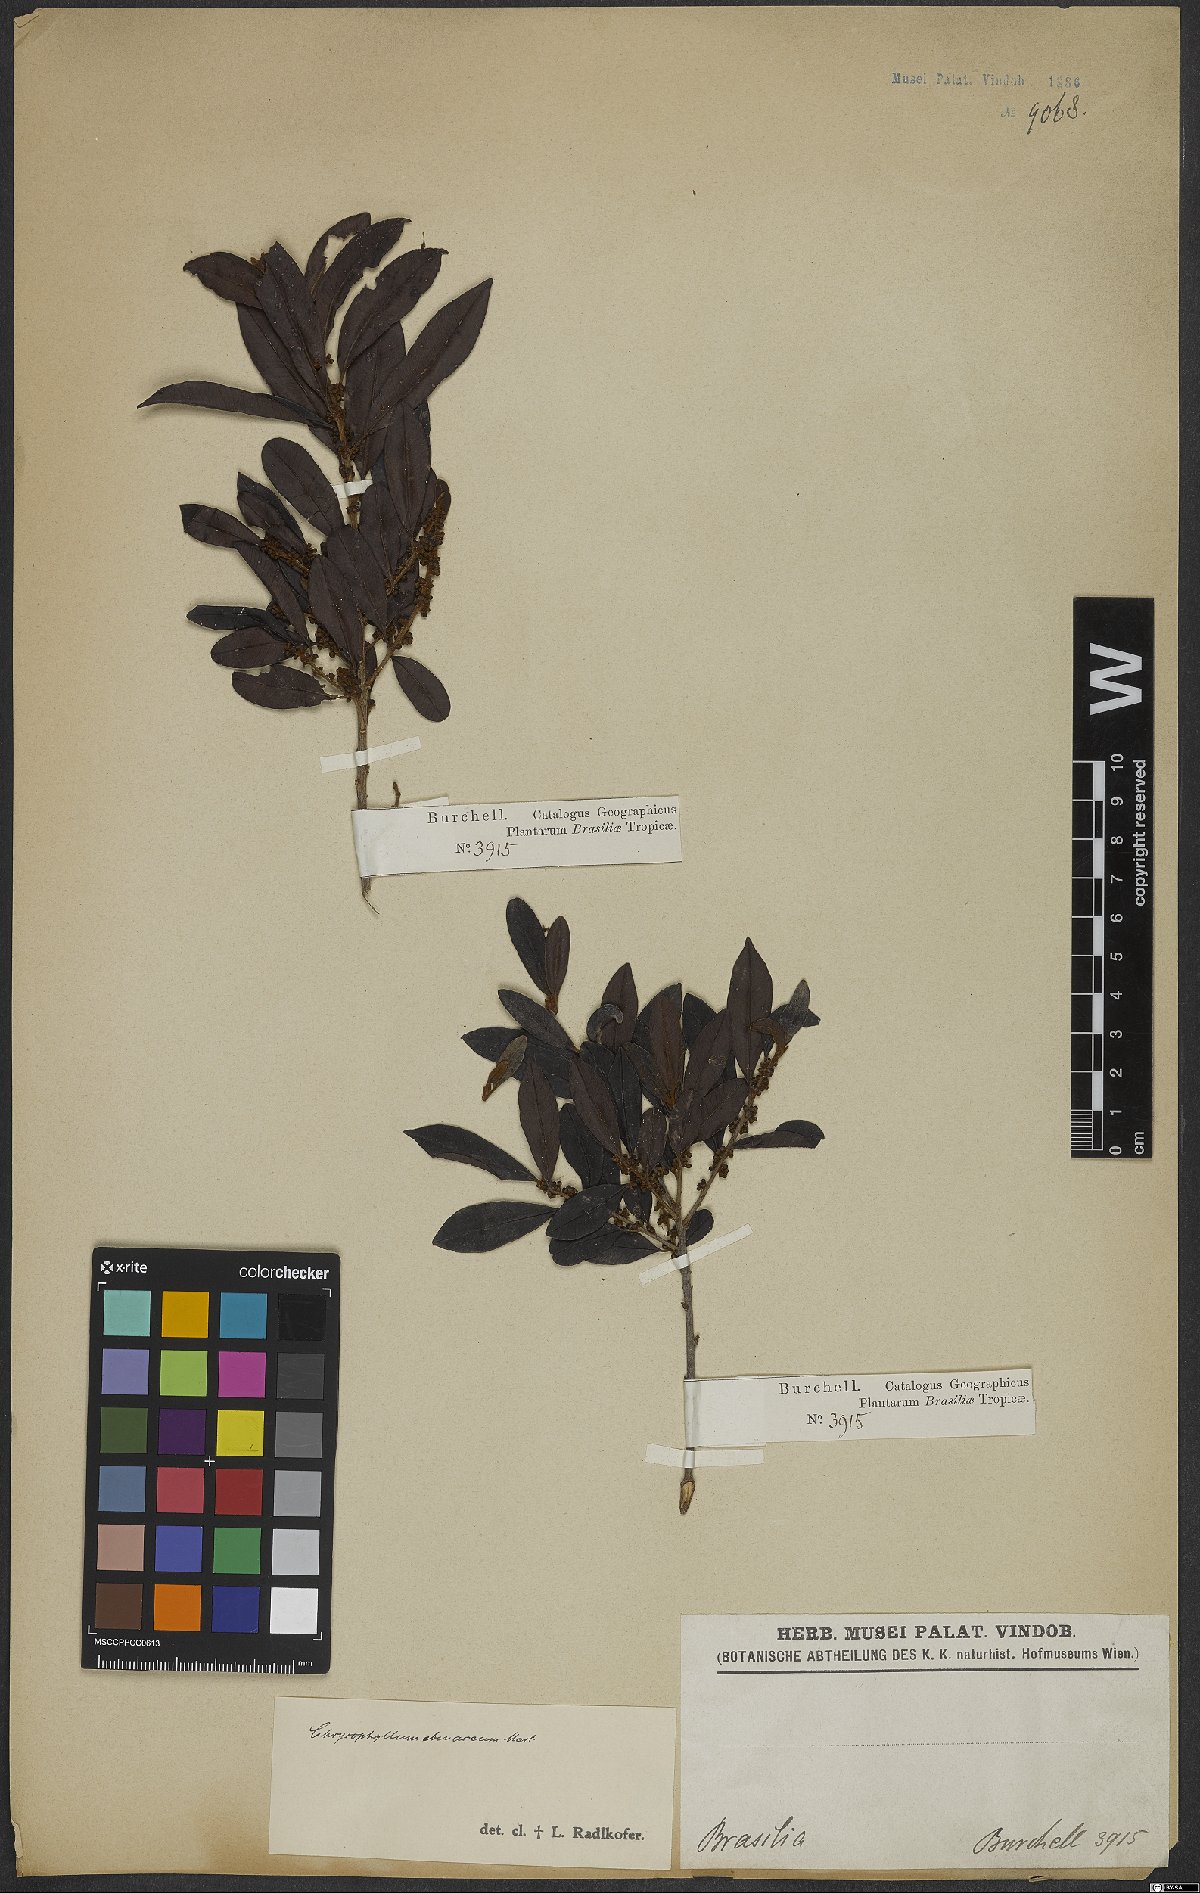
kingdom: Plantae
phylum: Tracheophyta
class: Magnoliopsida
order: Ericales
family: Sapotaceae
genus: Chrysophyllum
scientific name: Chrysophyllum marginatum
